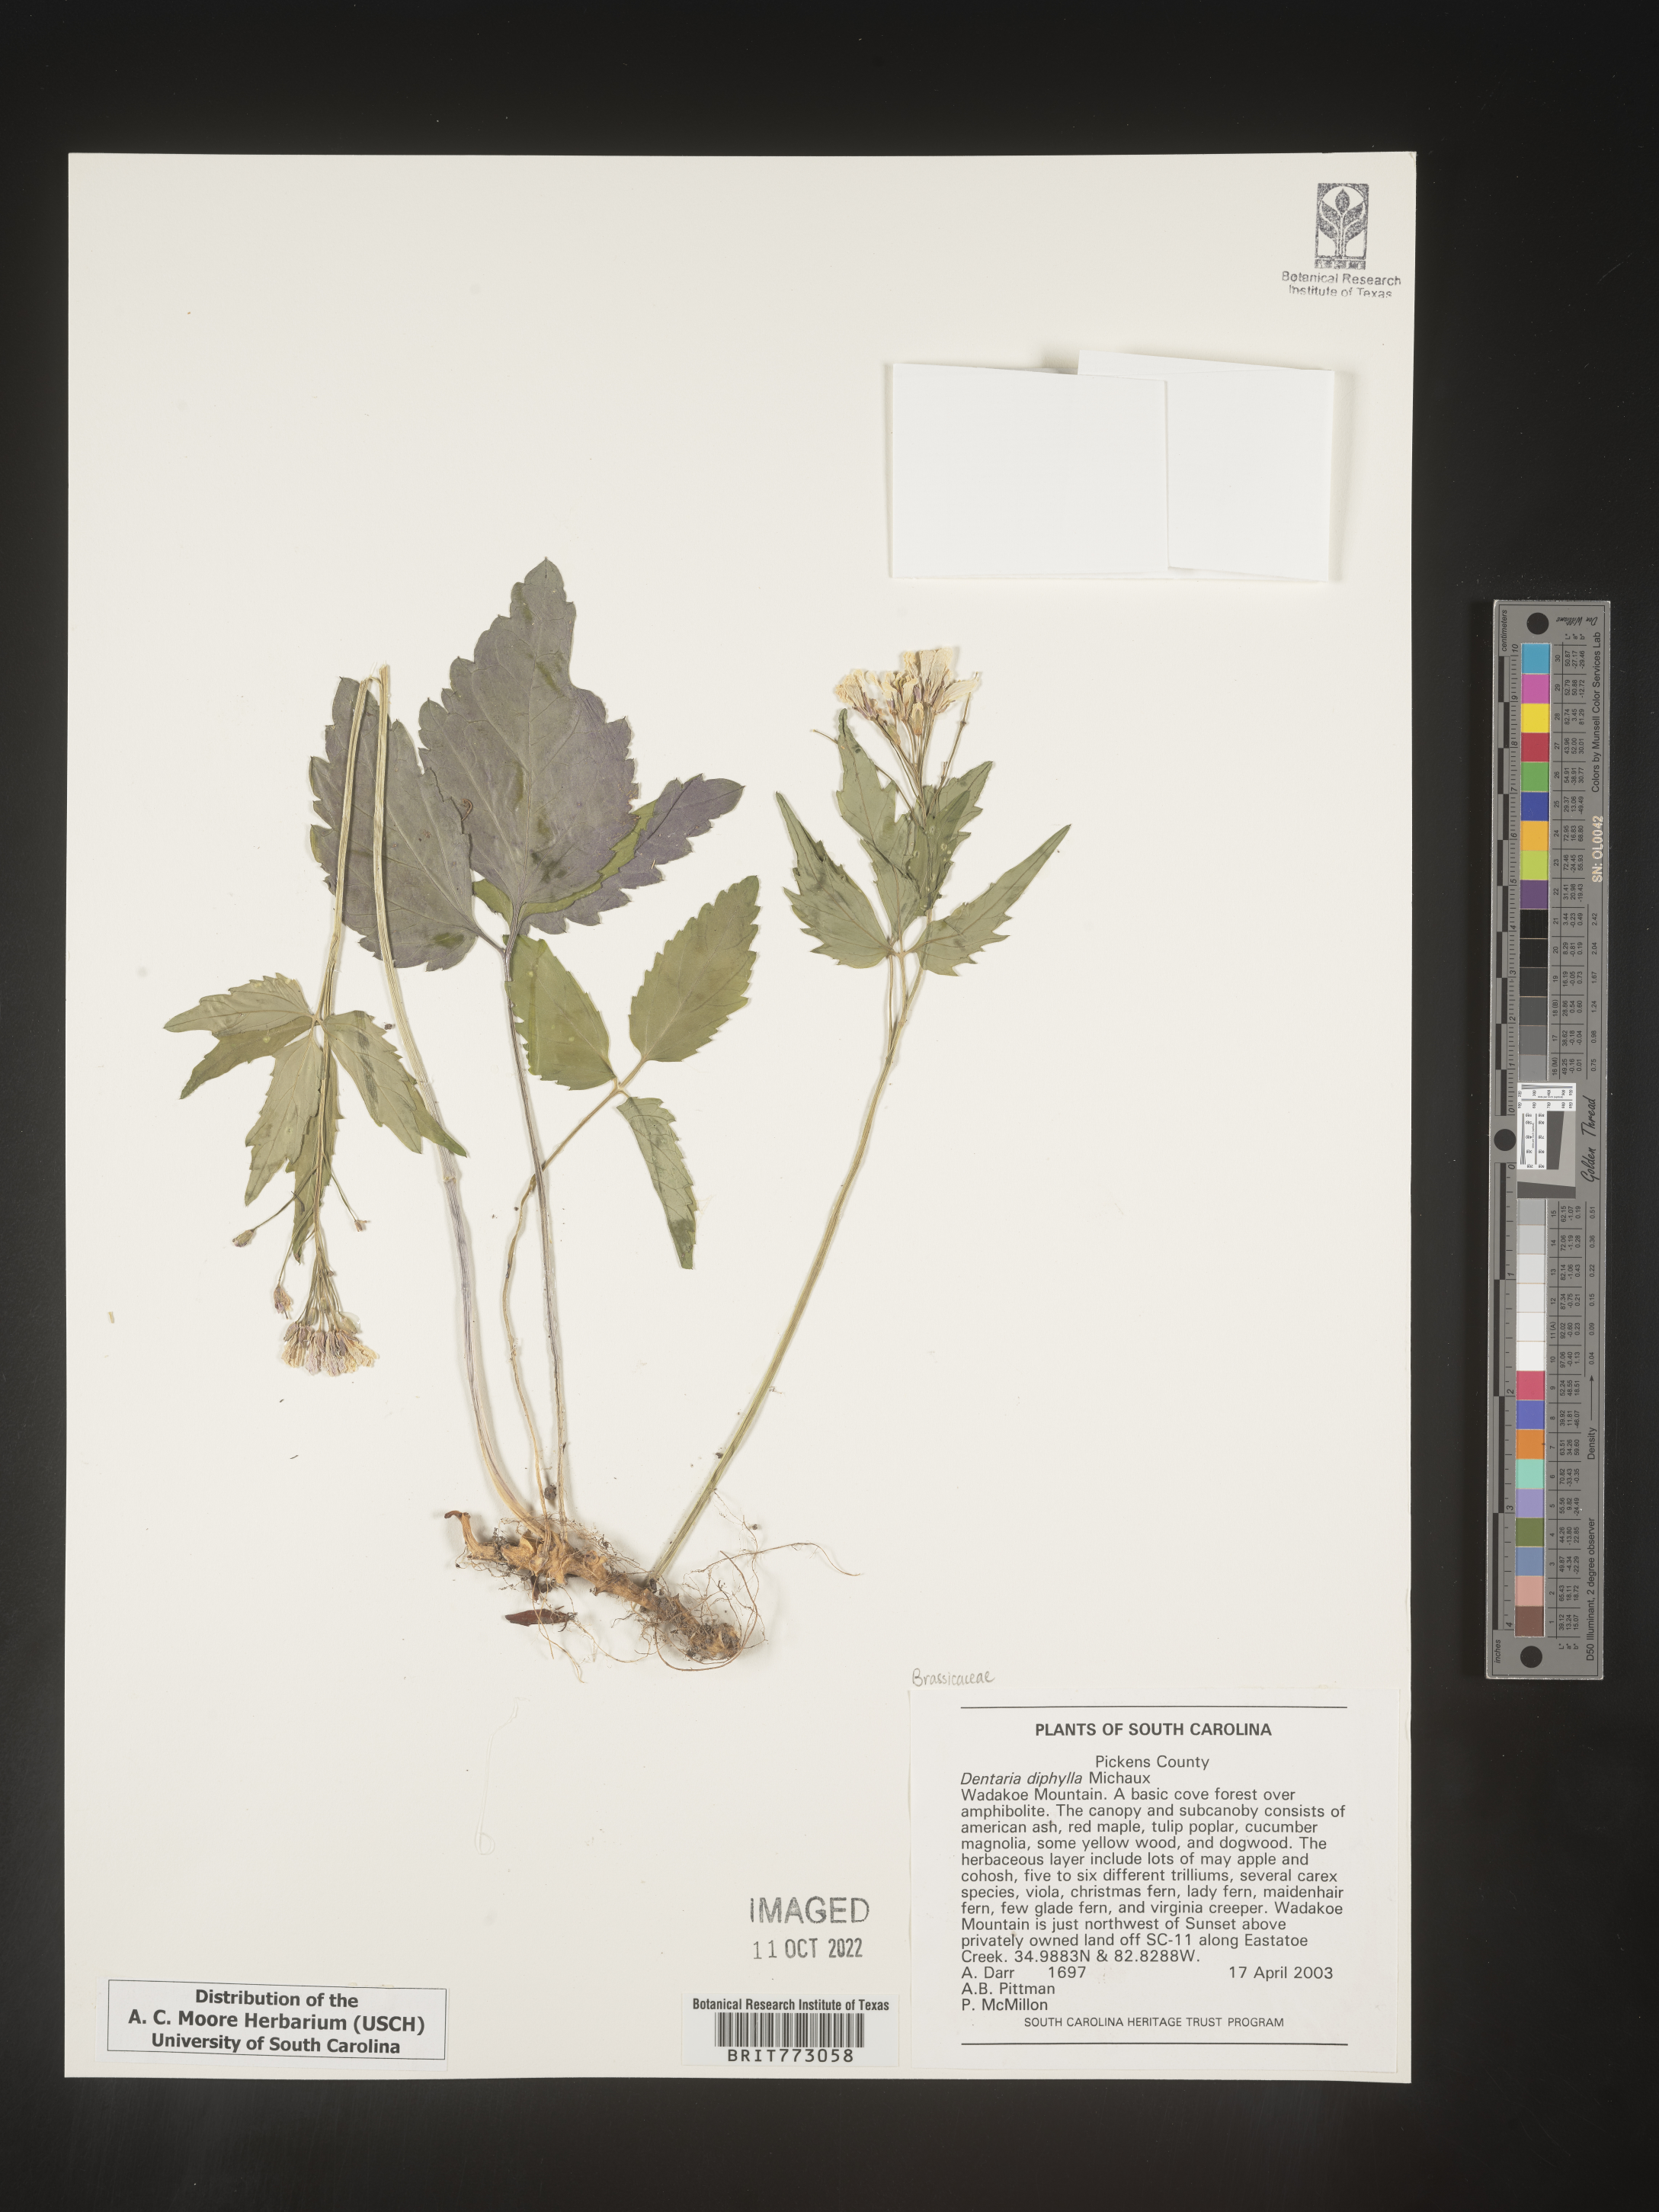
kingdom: Plantae
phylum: Tracheophyta
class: Magnoliopsida
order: Brassicales
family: Brassicaceae
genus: Cardamine
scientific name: Cardamine diphylla
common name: Broad-leaved toothwort
